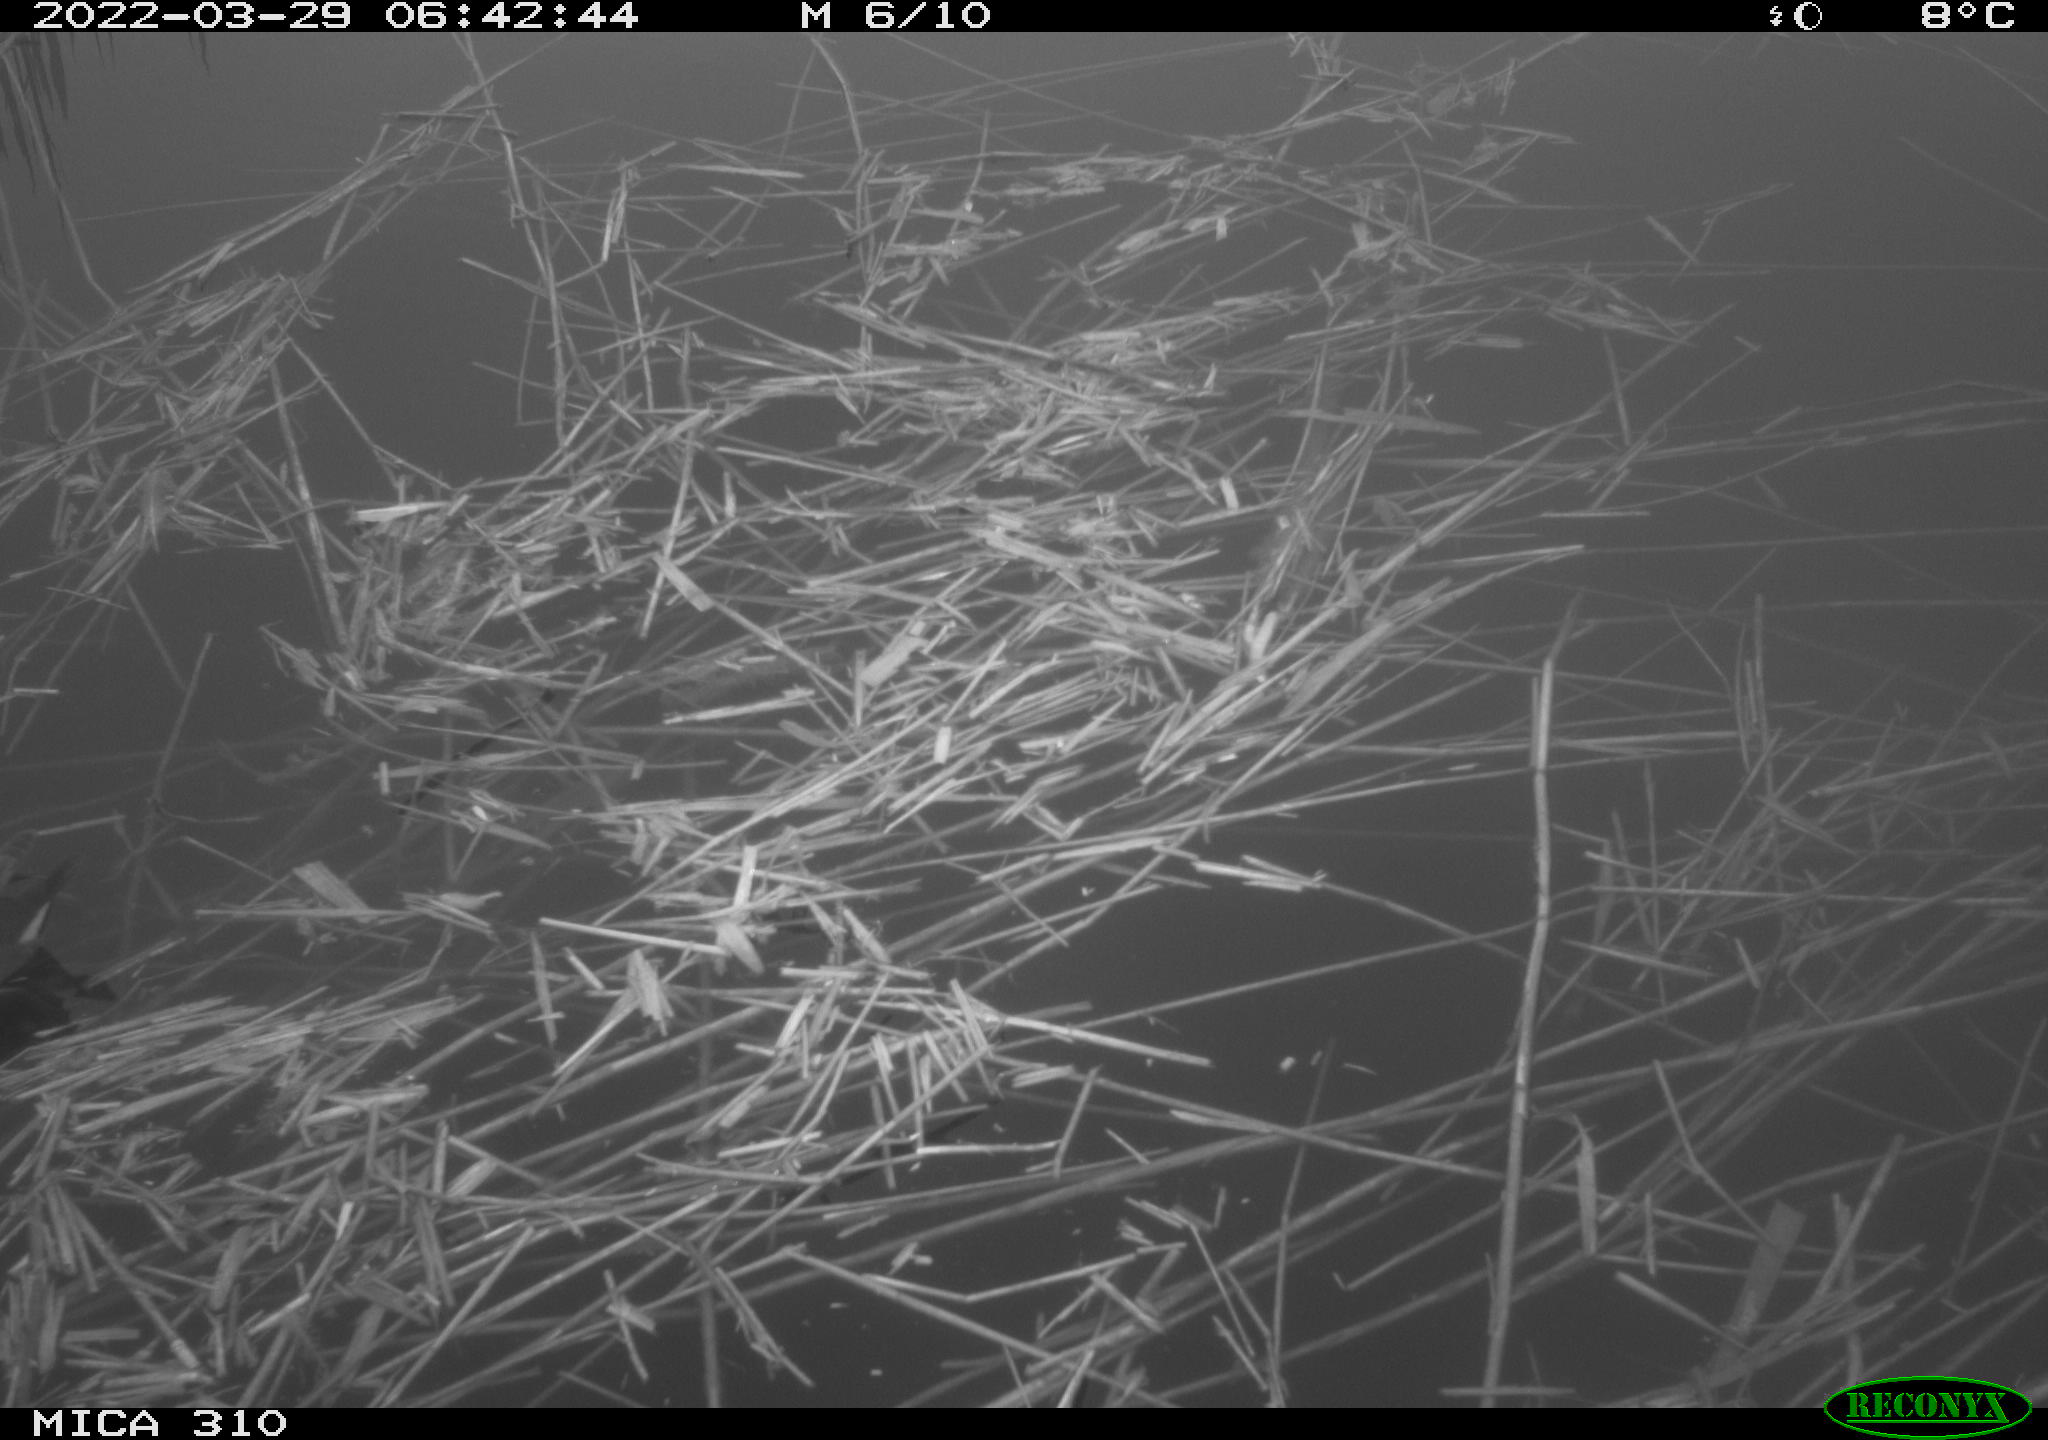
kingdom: Animalia
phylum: Chordata
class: Aves
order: Gruiformes
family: Rallidae
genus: Gallinula
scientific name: Gallinula chloropus
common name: Common moorhen
